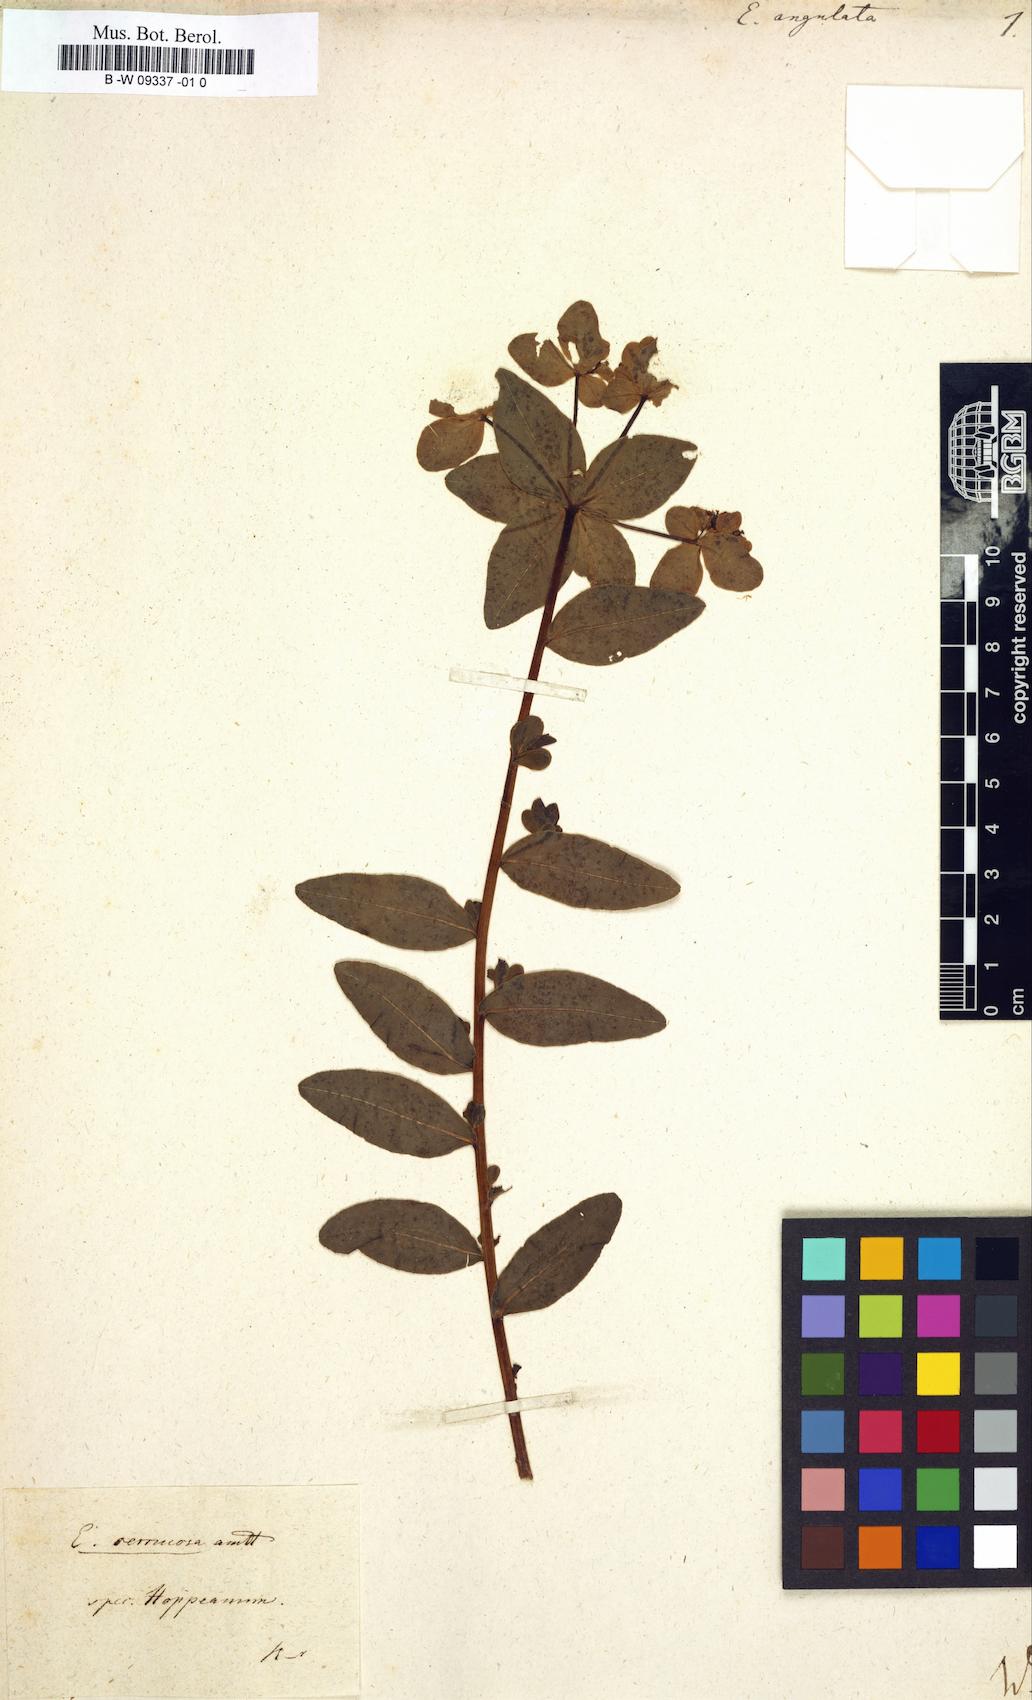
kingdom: Plantae
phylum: Tracheophyta
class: Magnoliopsida
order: Malpighiales
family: Euphorbiaceae
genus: Euphorbia
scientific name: Euphorbia angulata
